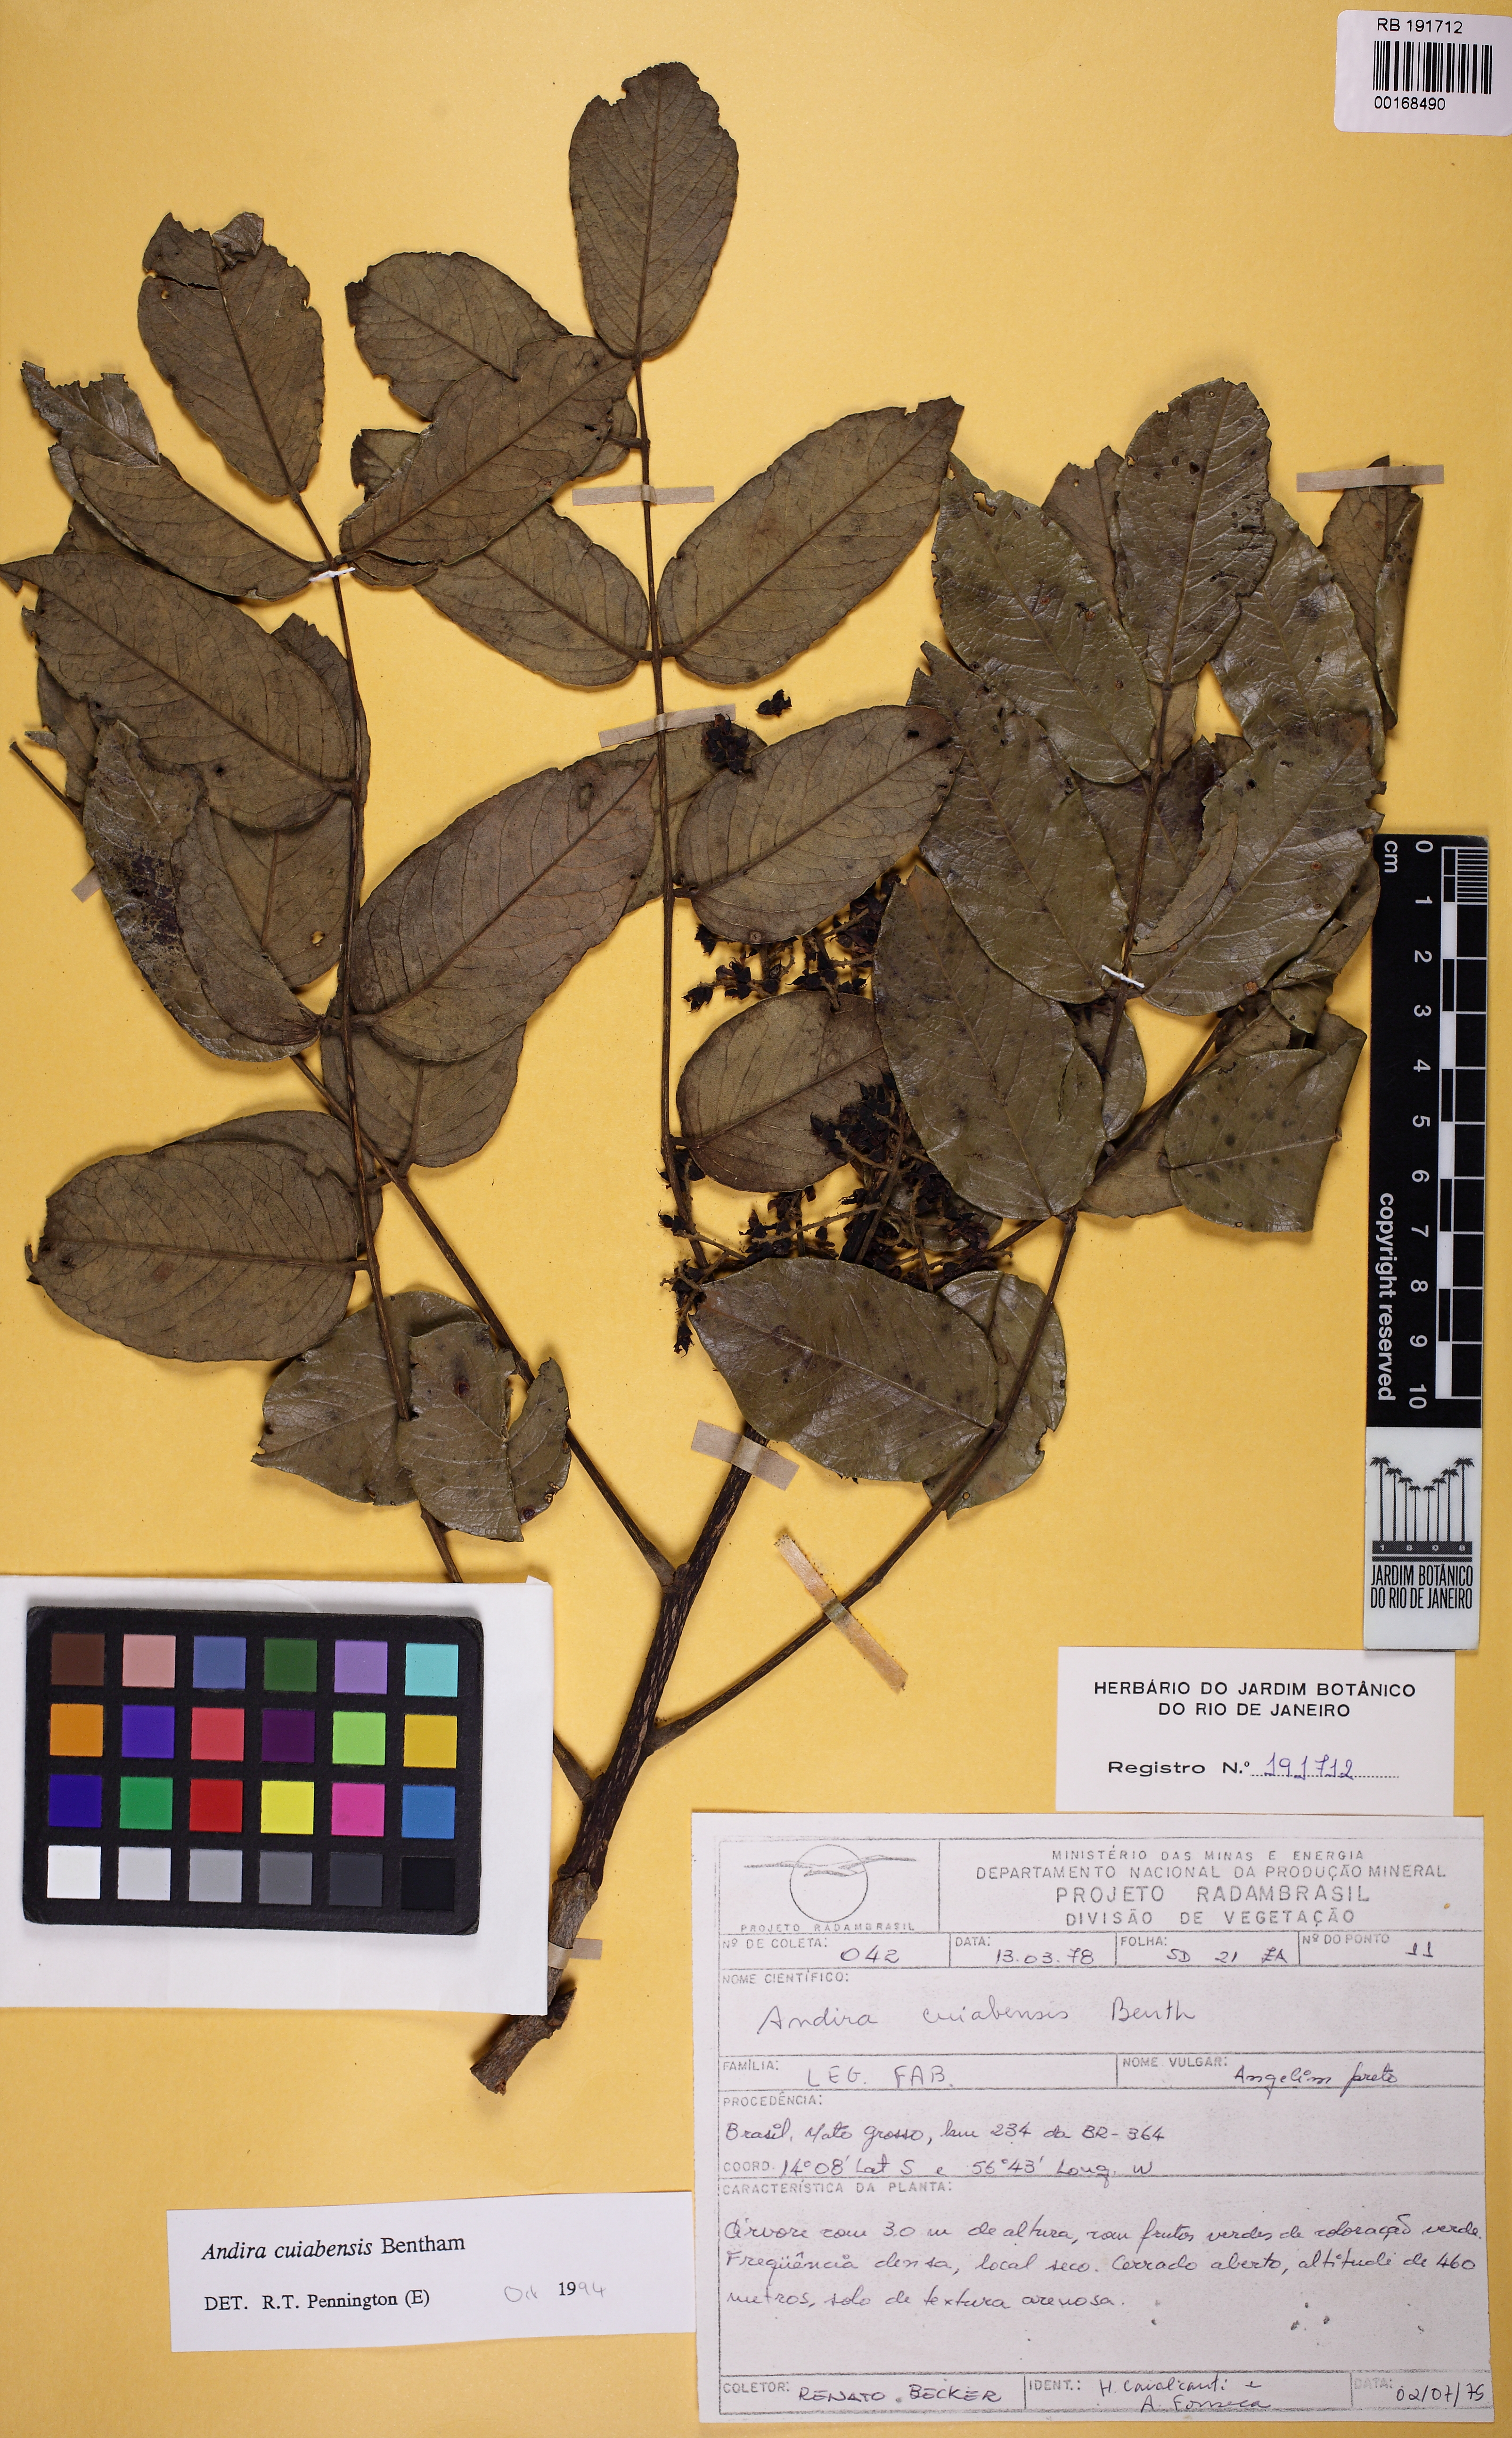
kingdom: Plantae
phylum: Tracheophyta
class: Magnoliopsida
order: Fabales
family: Fabaceae
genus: Andira
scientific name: Andira cujabensis
